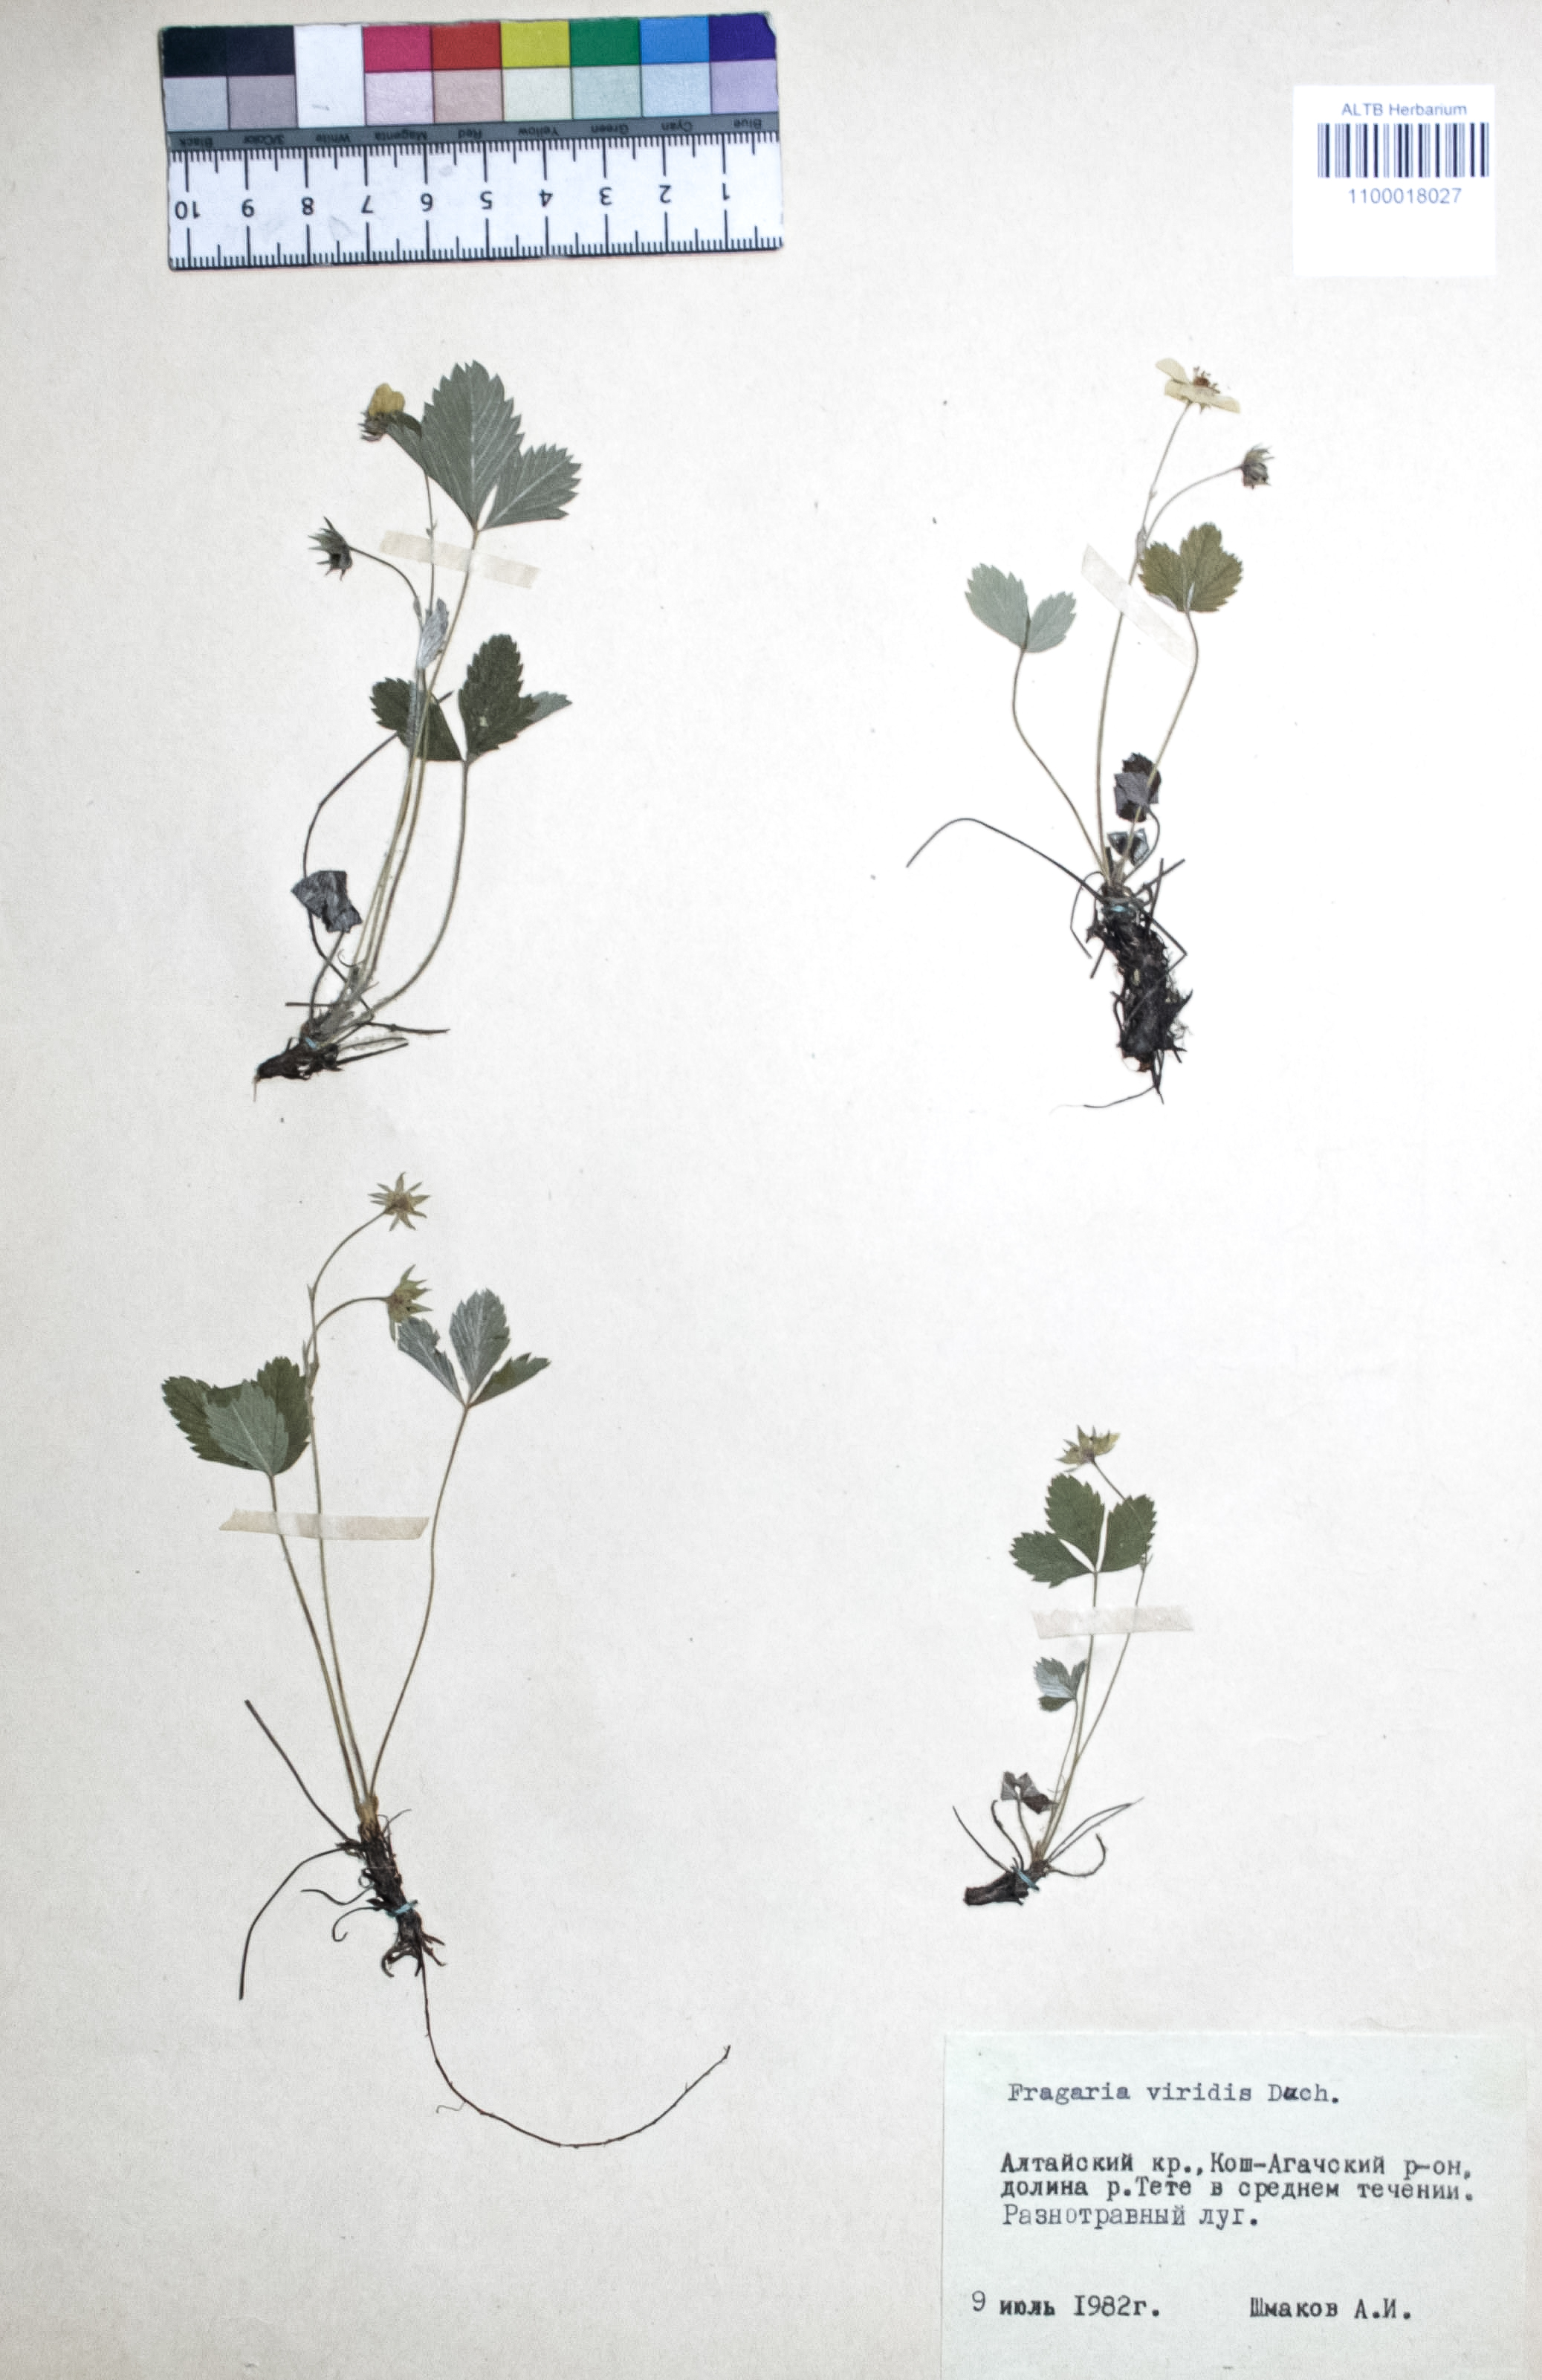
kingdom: Plantae
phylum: Tracheophyta
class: Magnoliopsida
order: Rosales
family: Rosaceae
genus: Fragaria
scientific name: Fragaria viridis
